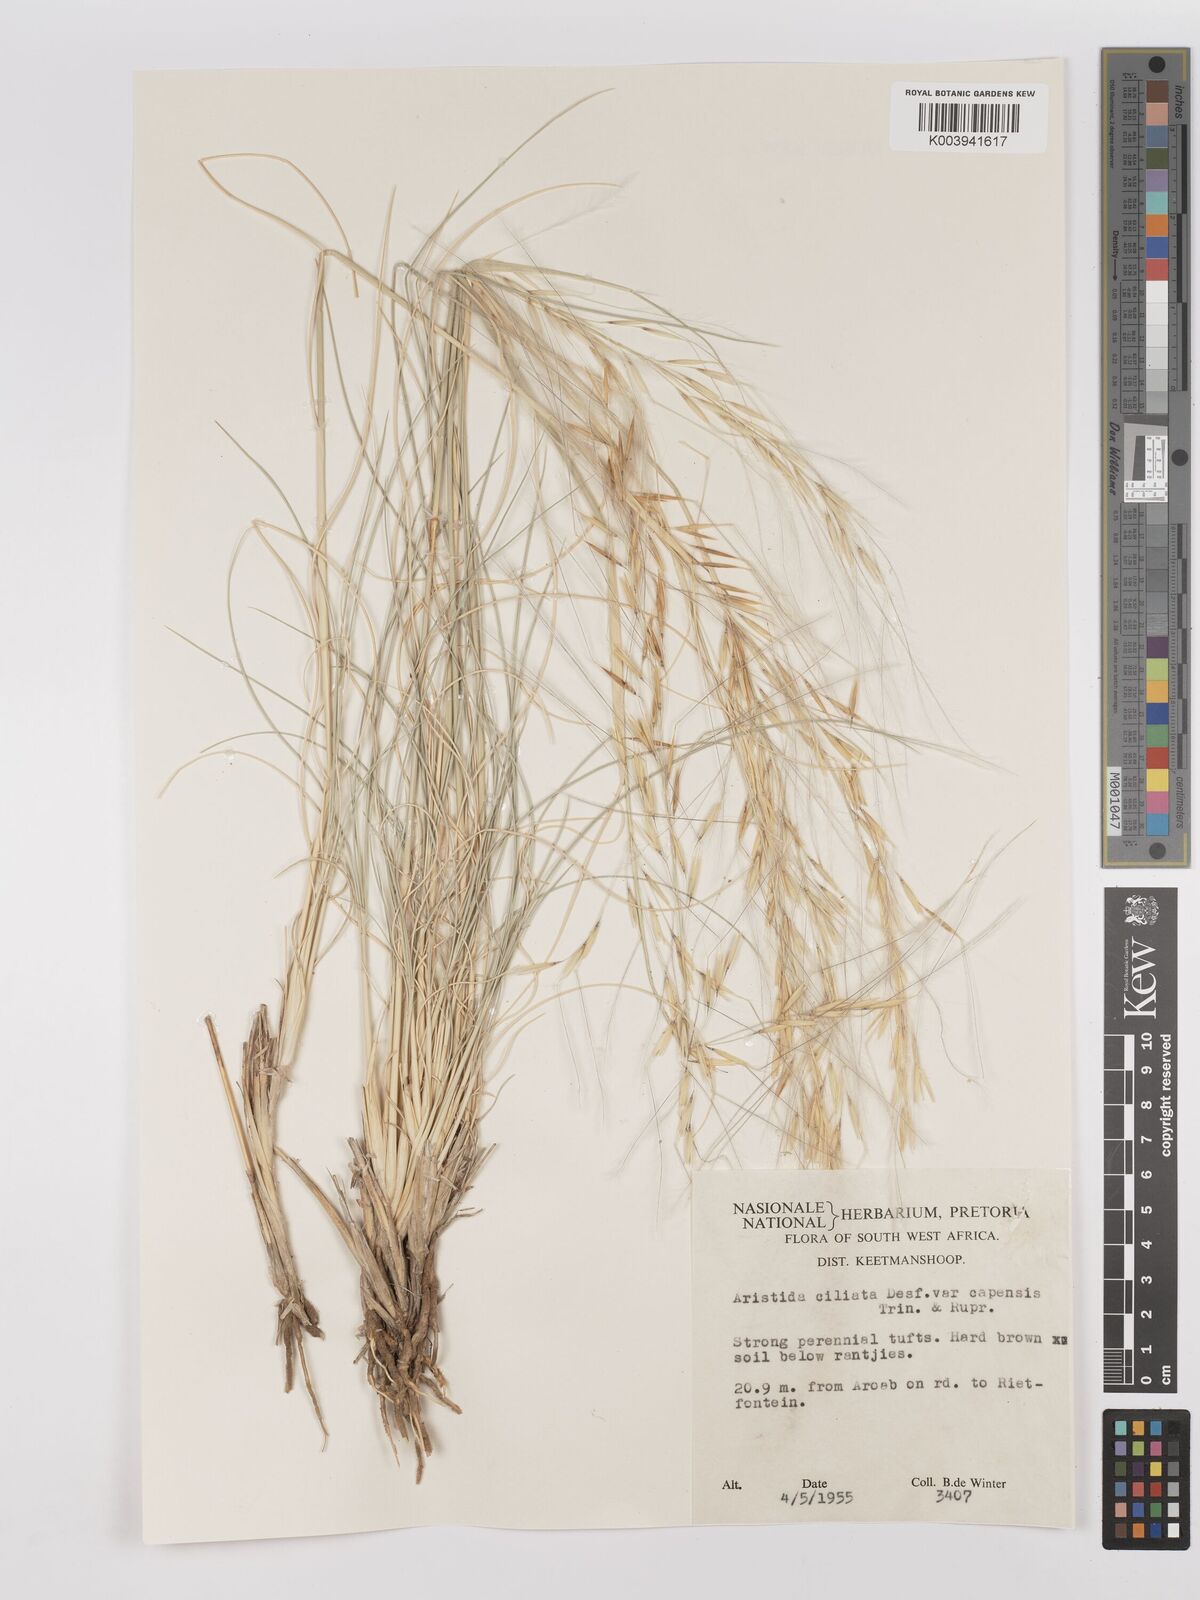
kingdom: Plantae
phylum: Tracheophyta
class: Liliopsida
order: Poales
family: Poaceae
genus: Stipagrostis
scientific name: Stipagrostis ciliata
